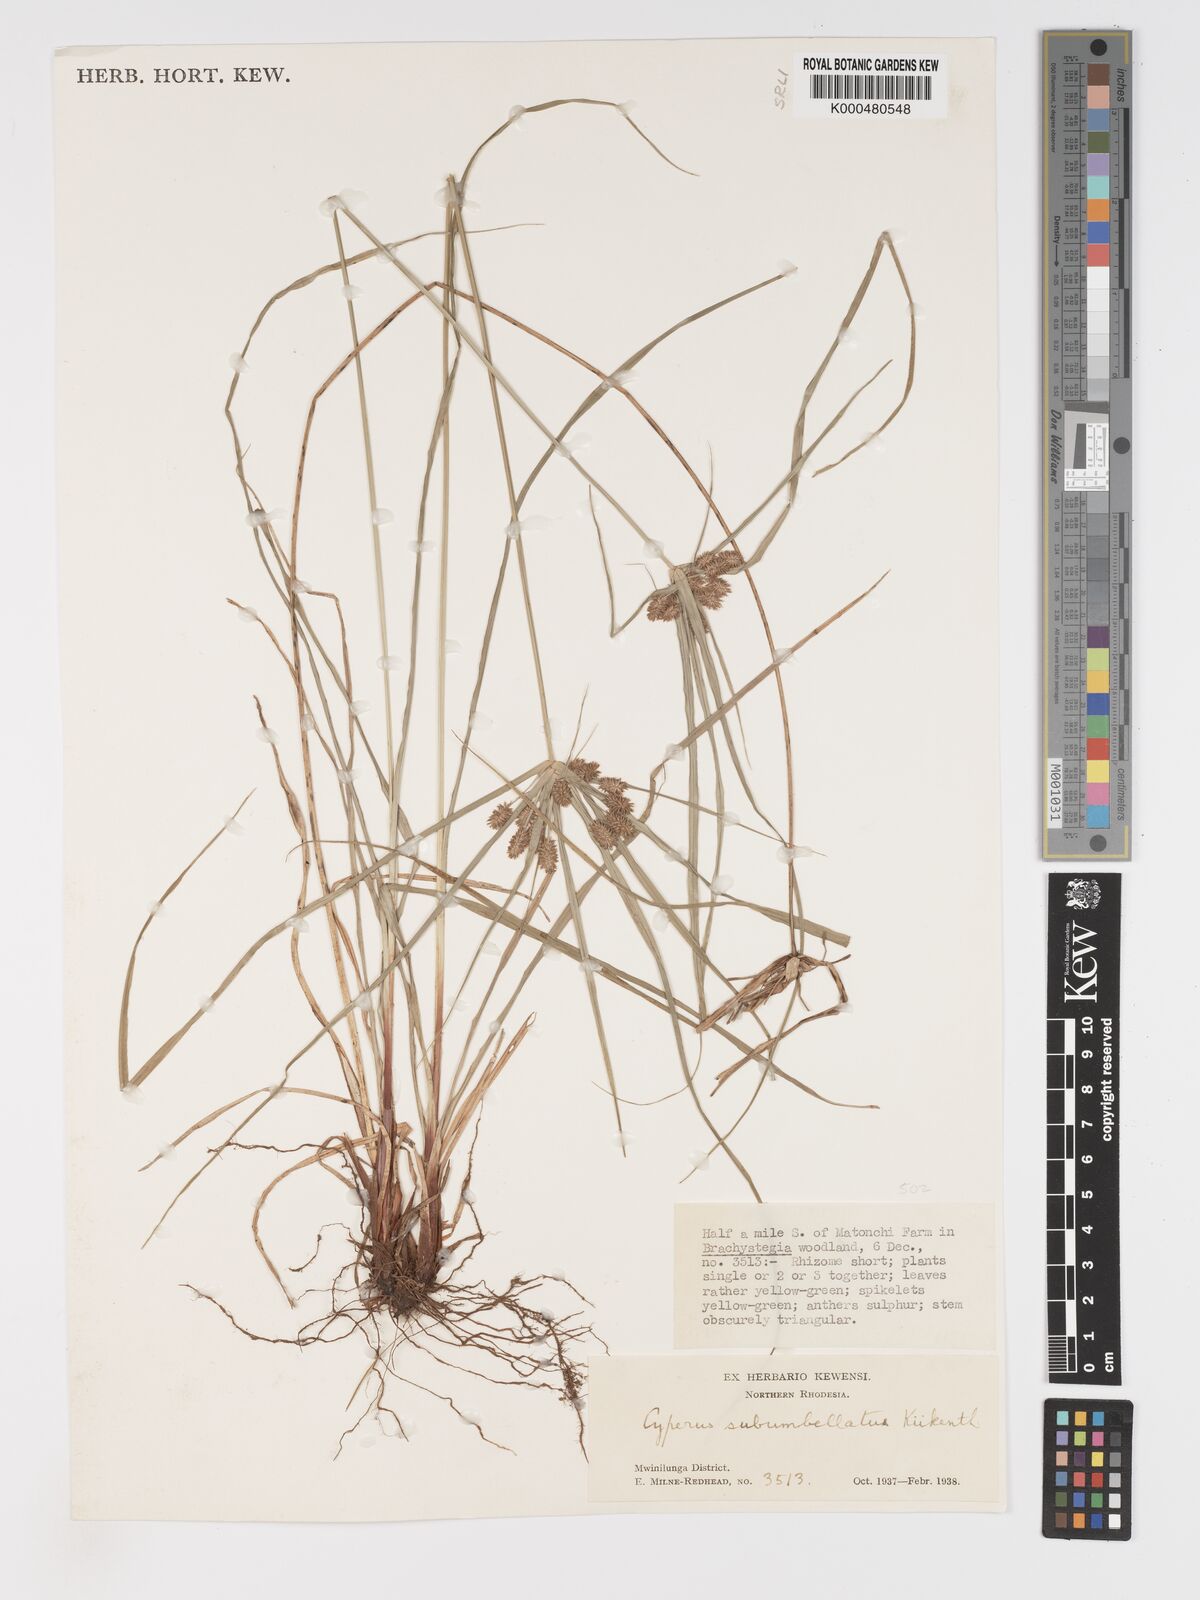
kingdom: Plantae
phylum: Tracheophyta
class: Liliopsida
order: Poales
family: Cyperaceae
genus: Cyperus
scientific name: Cyperus cyperoides
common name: Pacific island flat sedge
